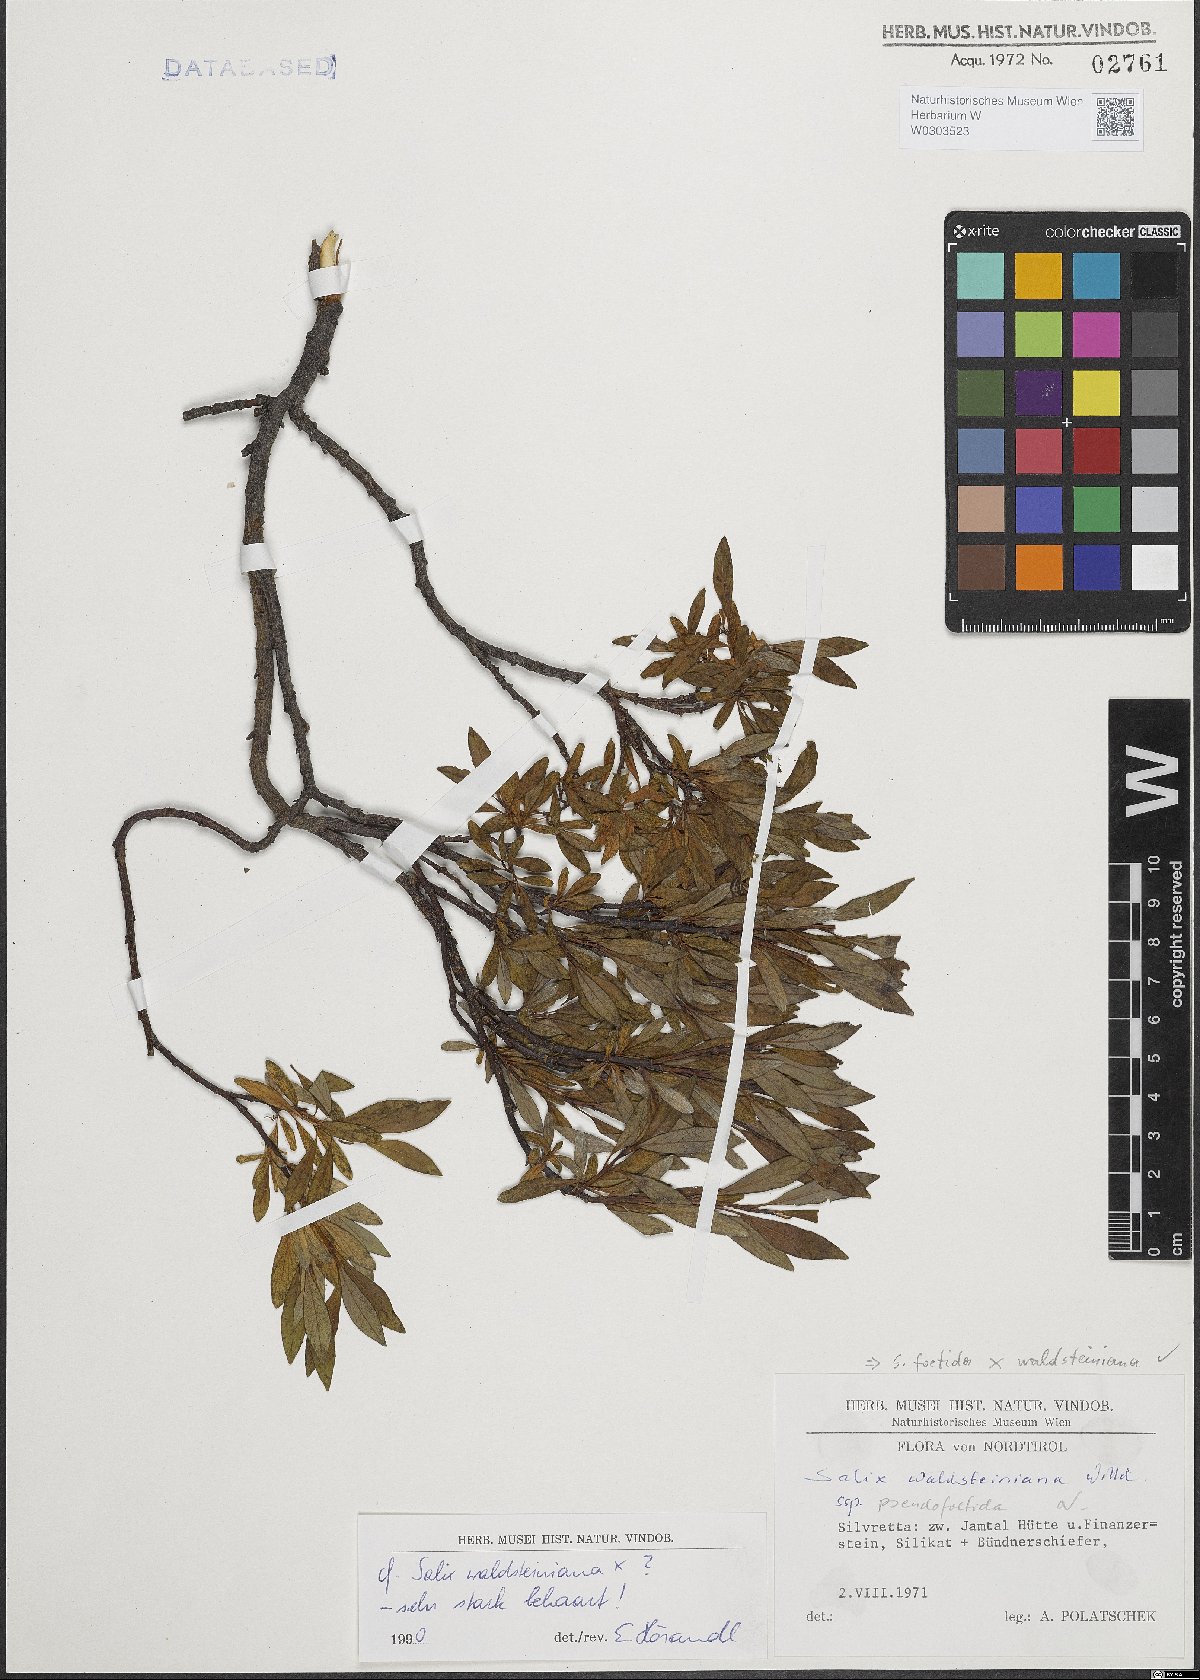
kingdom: Plantae
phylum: Tracheophyta
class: Magnoliopsida
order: Malpighiales
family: Salicaceae
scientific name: Salicaceae
